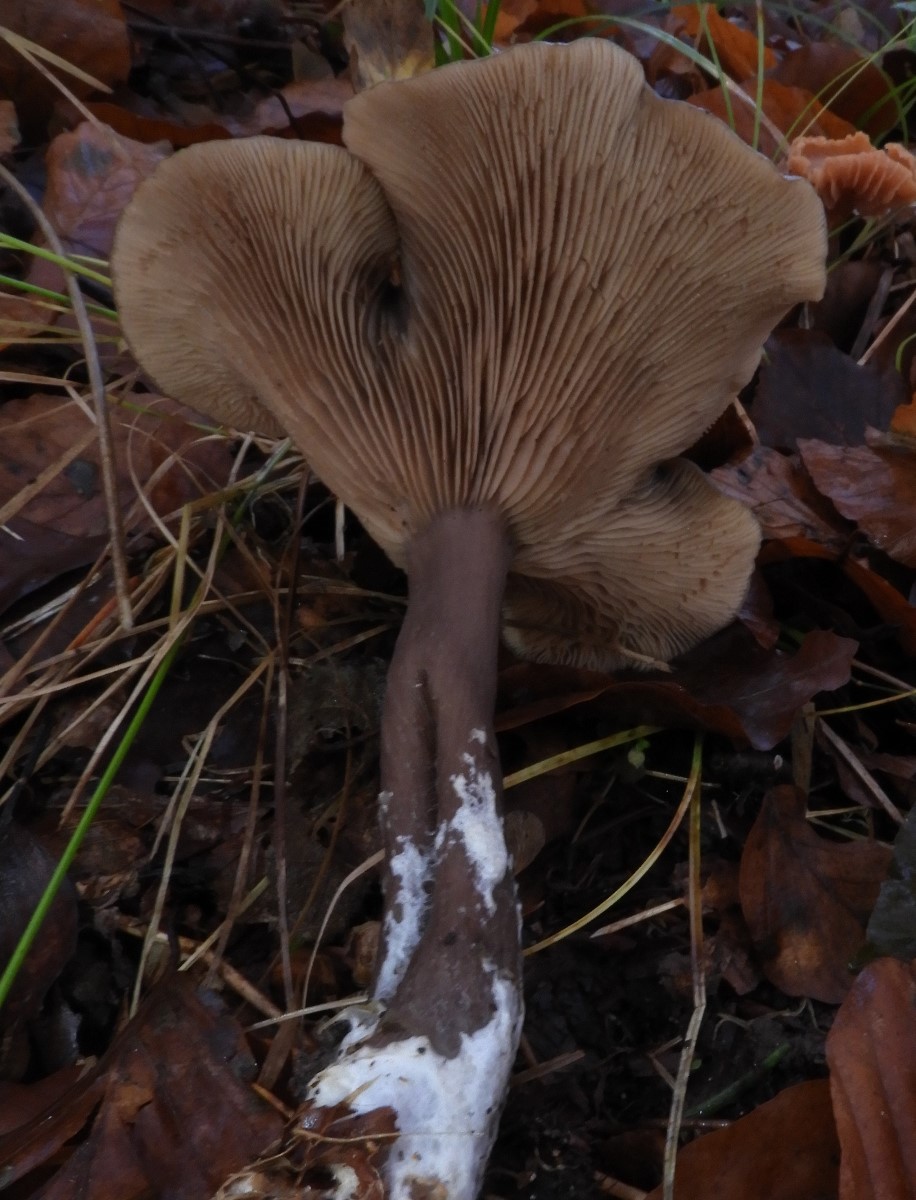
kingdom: Fungi
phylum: Basidiomycota
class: Agaricomycetes
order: Agaricales
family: Pseudoclitocybaceae
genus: Pseudoclitocybe
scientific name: Pseudoclitocybe cyathiformis
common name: almindelig bægertragthat
